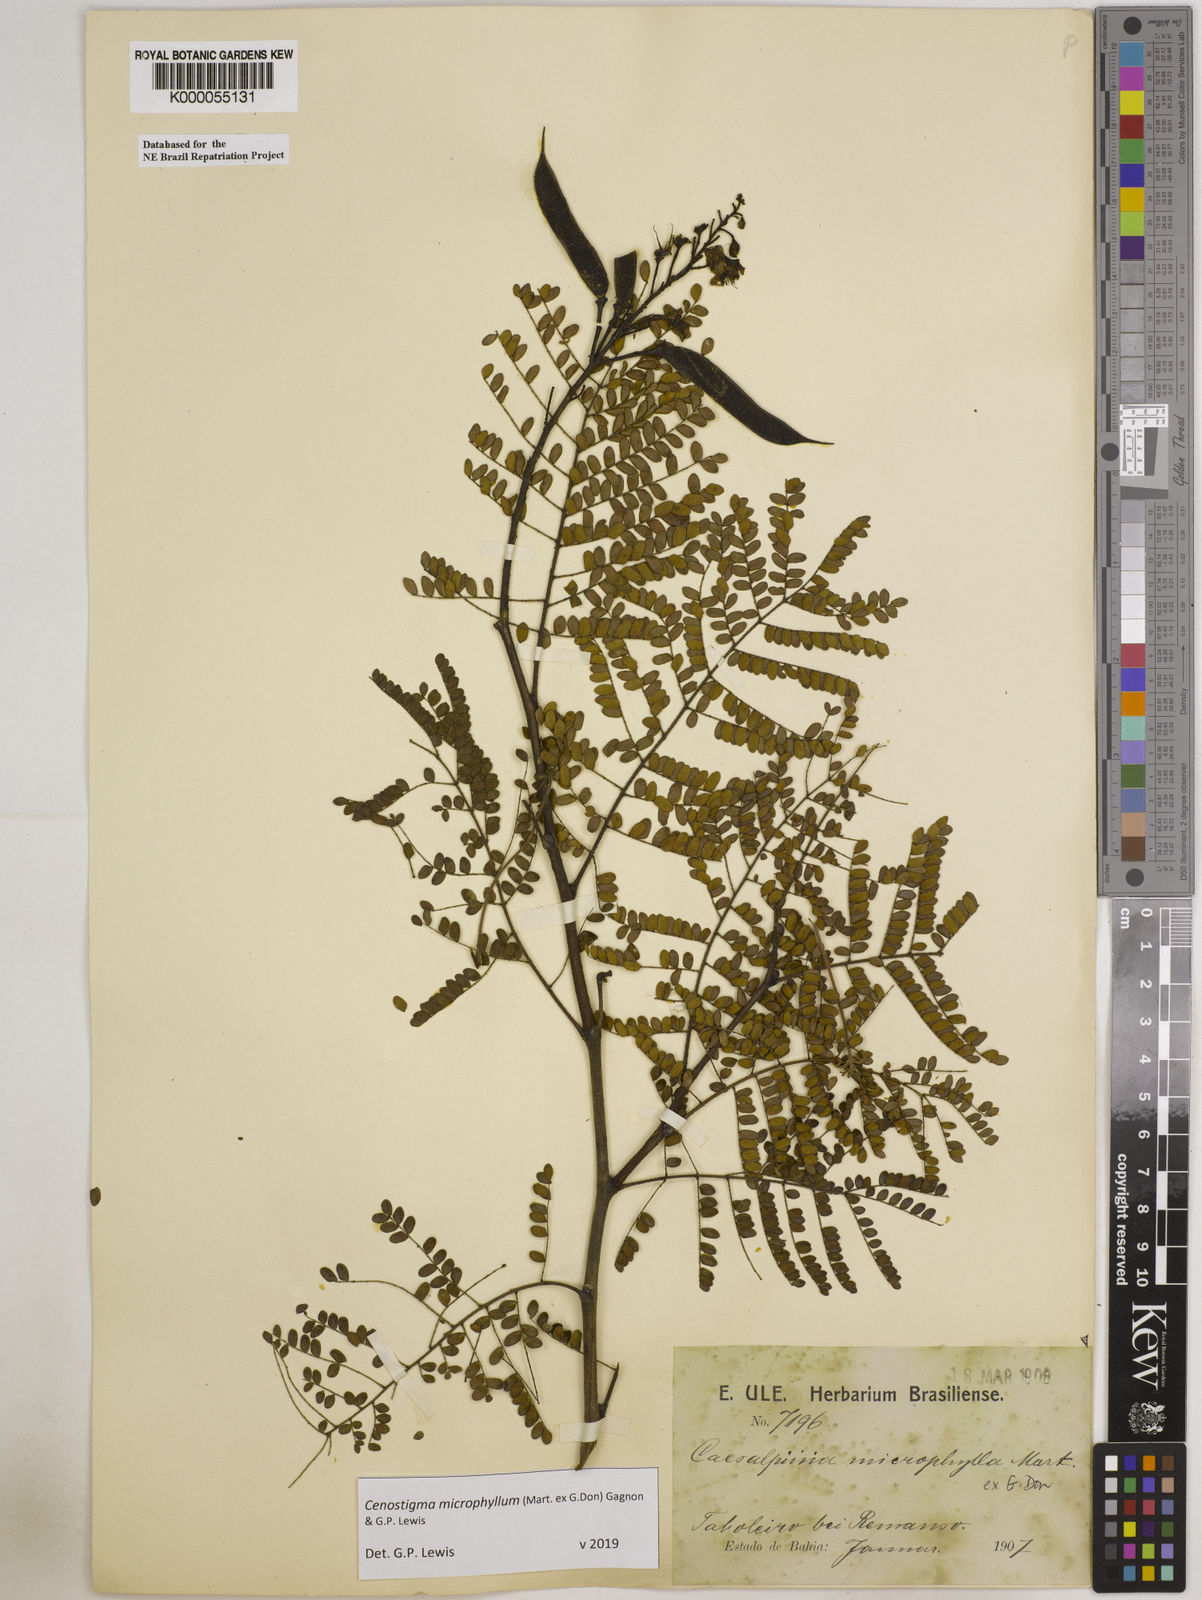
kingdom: Plantae
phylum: Tracheophyta
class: Magnoliopsida
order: Fabales
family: Fabaceae
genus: Cenostigma
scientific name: Cenostigma microphyllum
